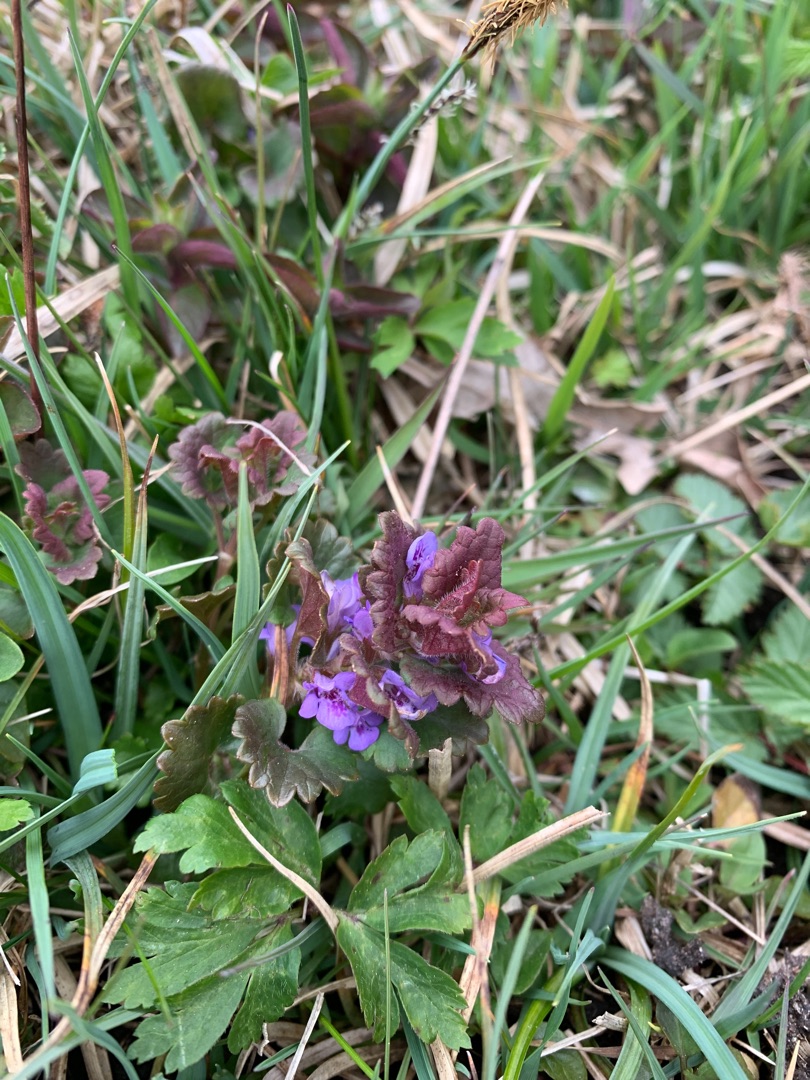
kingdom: Plantae
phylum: Tracheophyta
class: Magnoliopsida
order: Lamiales
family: Lamiaceae
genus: Glechoma
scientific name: Glechoma hederacea
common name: Korsknap
